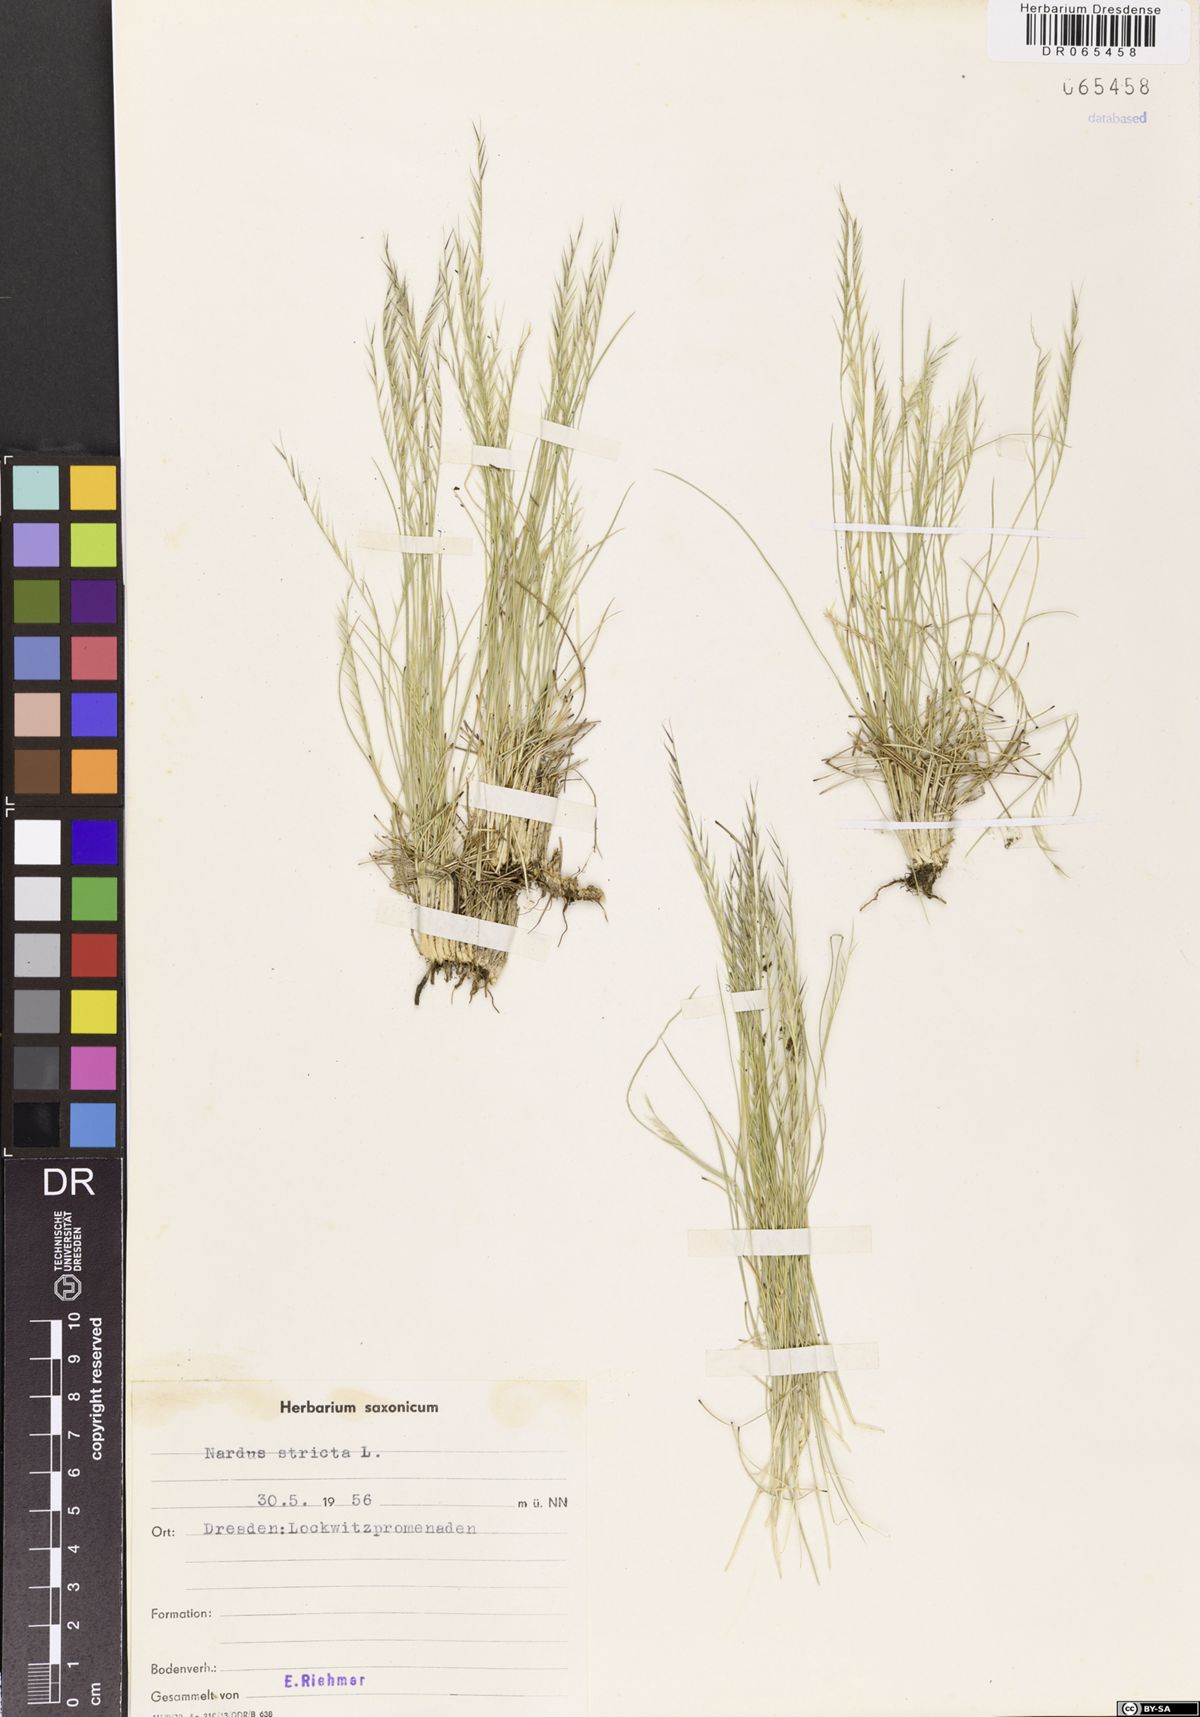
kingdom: Plantae
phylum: Tracheophyta
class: Liliopsida
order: Poales
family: Poaceae
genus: Nardus
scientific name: Nardus stricta
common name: Mat-grass
